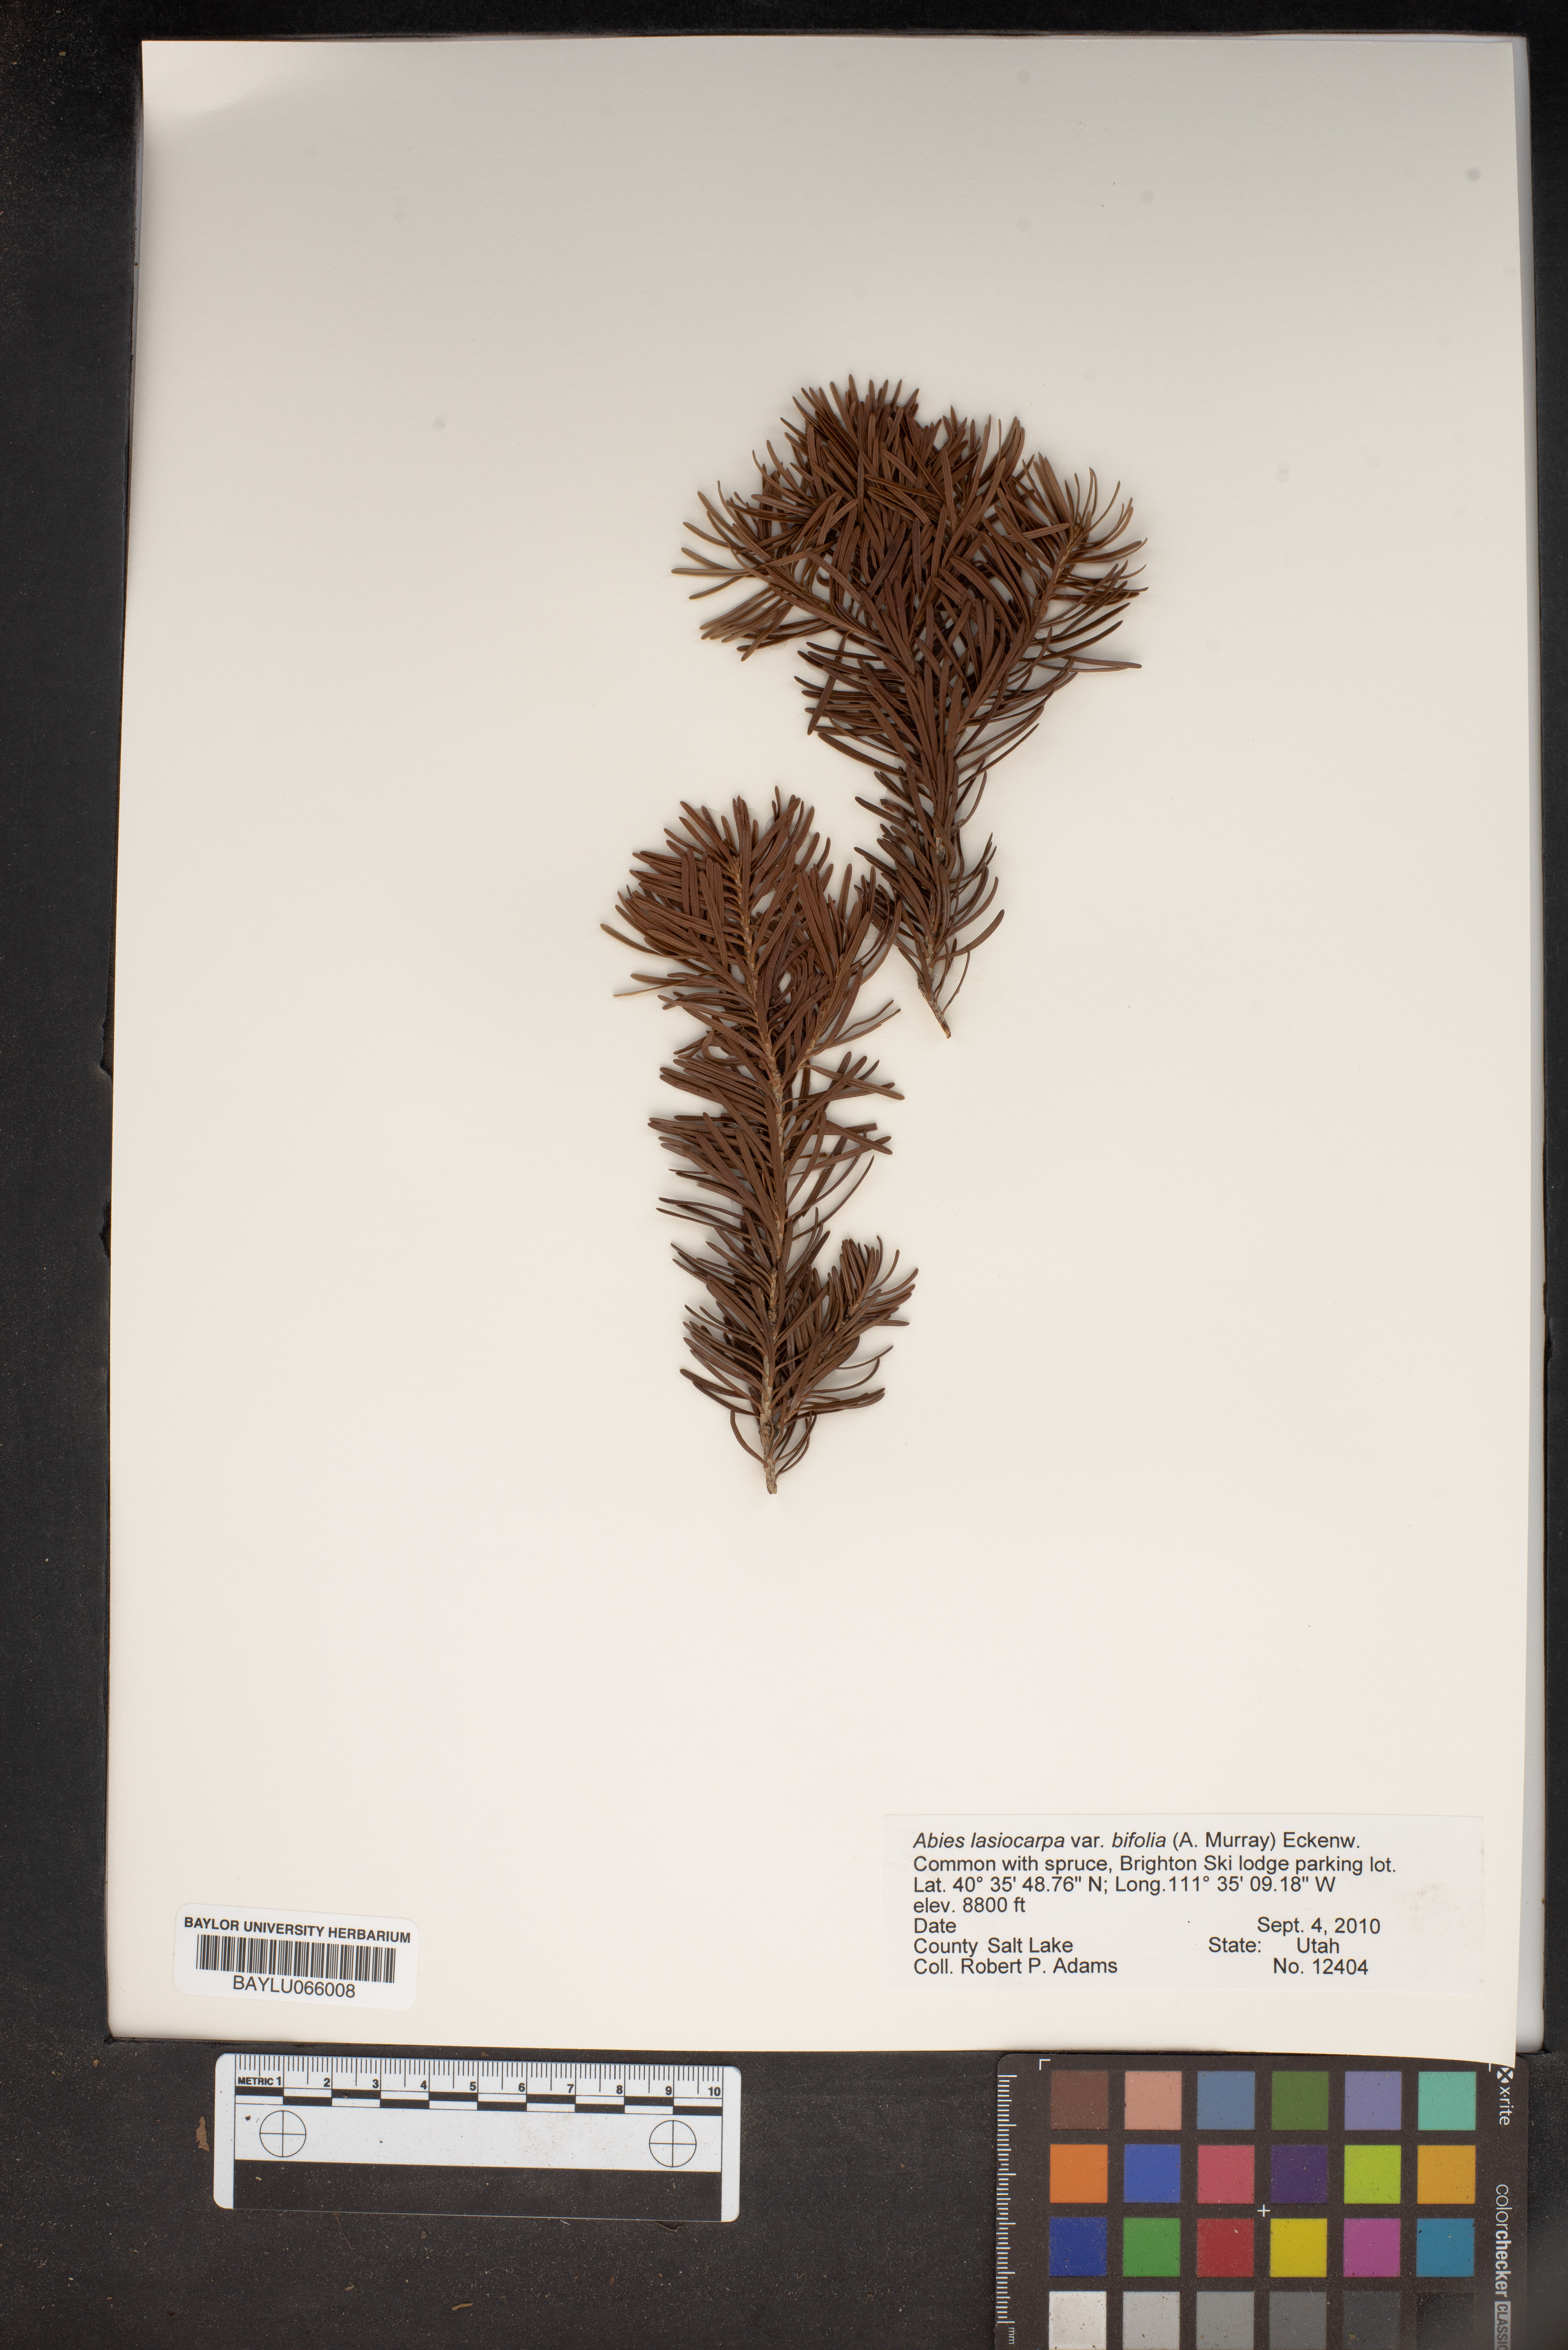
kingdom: Plantae
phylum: Tracheophyta
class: Pinopsida
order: Pinales
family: Pinaceae
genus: Abies
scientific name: Abies lasiocarpa
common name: Subalpine fir
